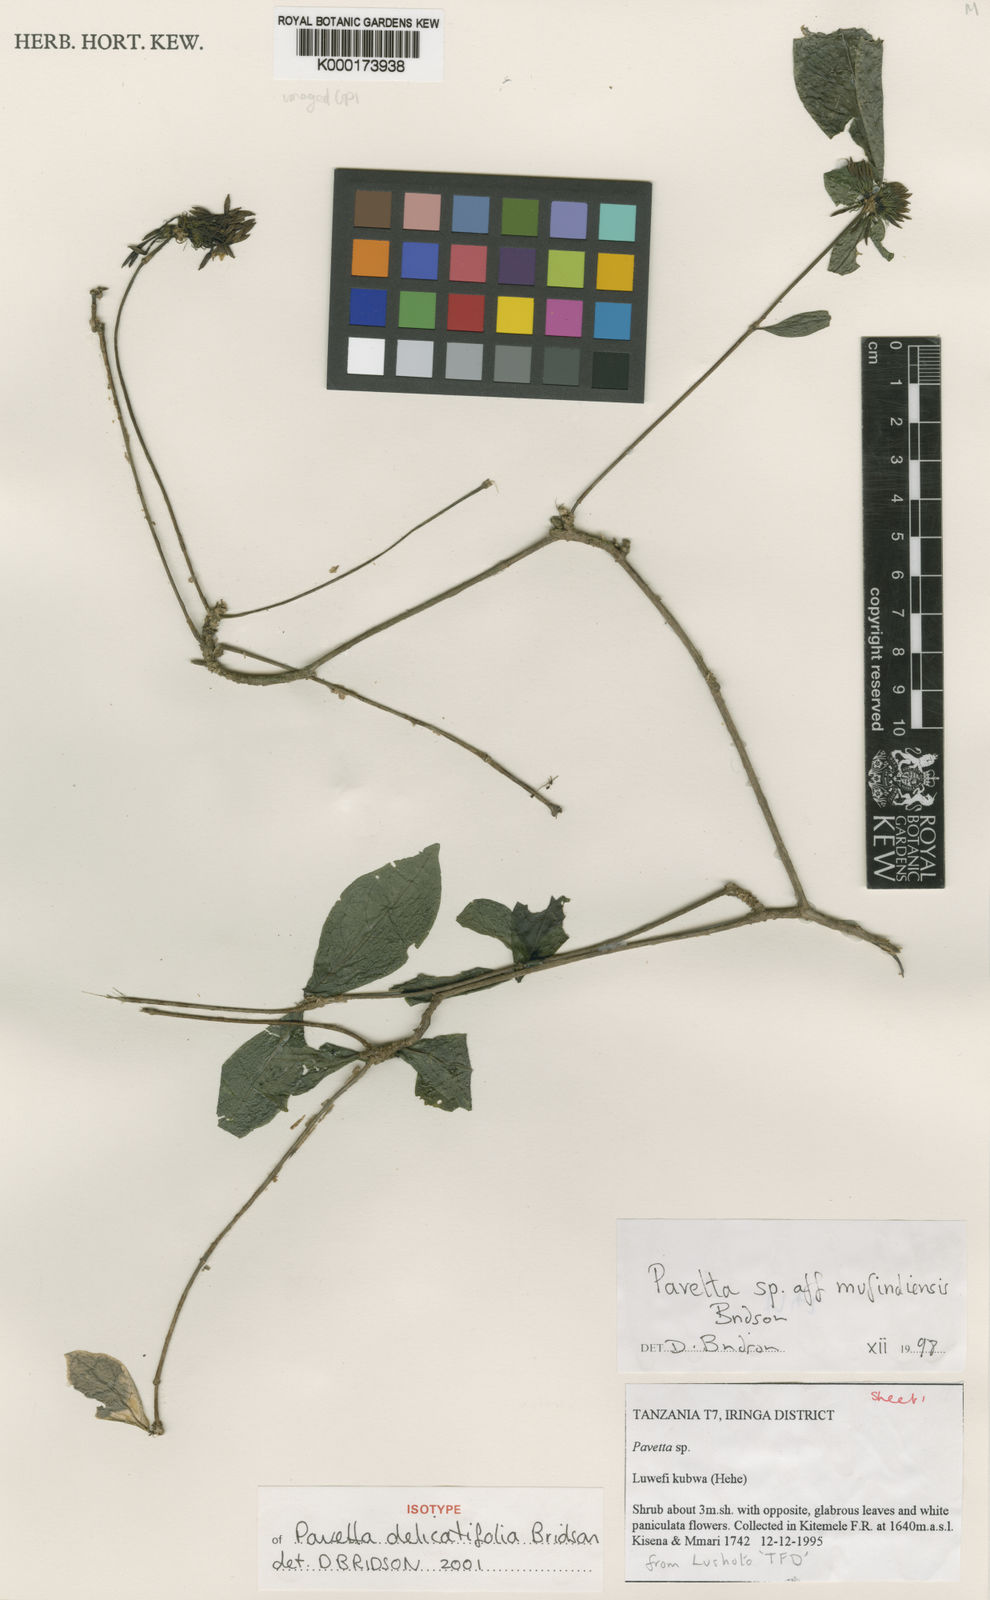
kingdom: Plantae
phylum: Tracheophyta
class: Magnoliopsida
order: Gentianales
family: Rubiaceae
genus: Pavetta
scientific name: Pavetta delicatifolia
